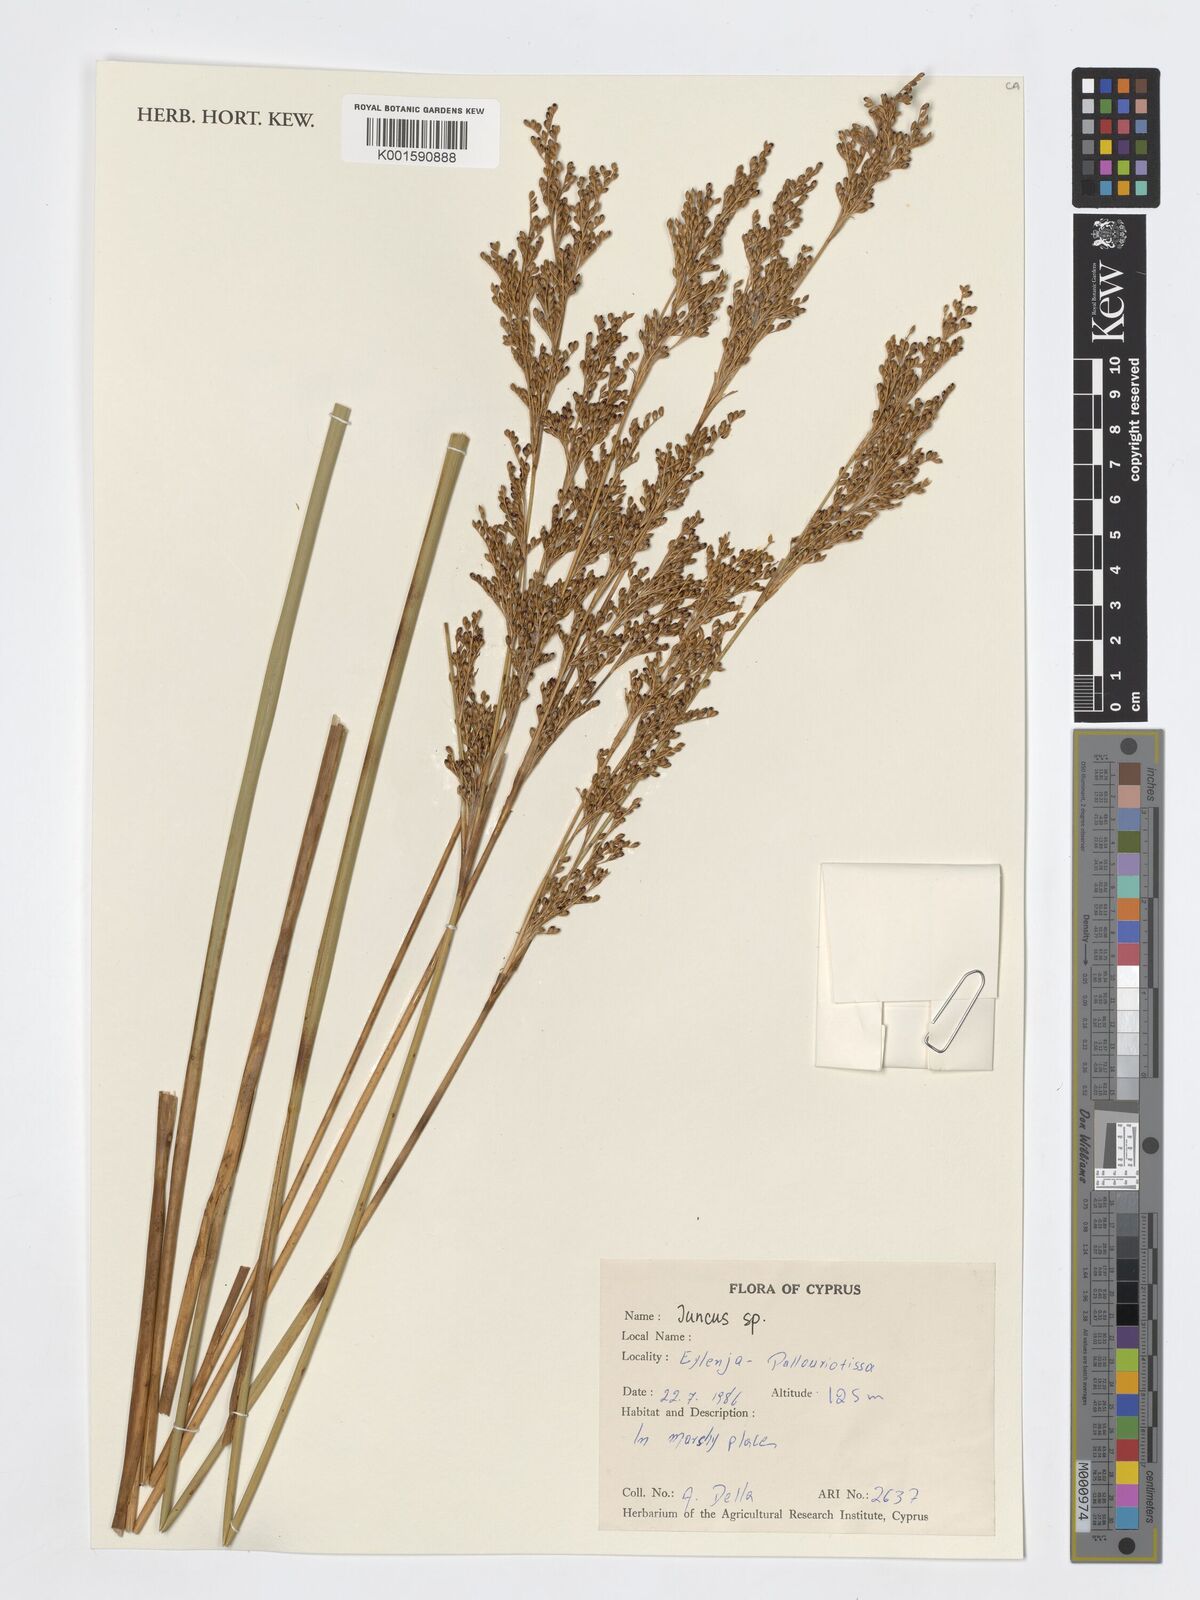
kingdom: Plantae
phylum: Tracheophyta
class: Liliopsida
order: Poales
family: Juncaceae
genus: Juncus
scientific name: Juncus
